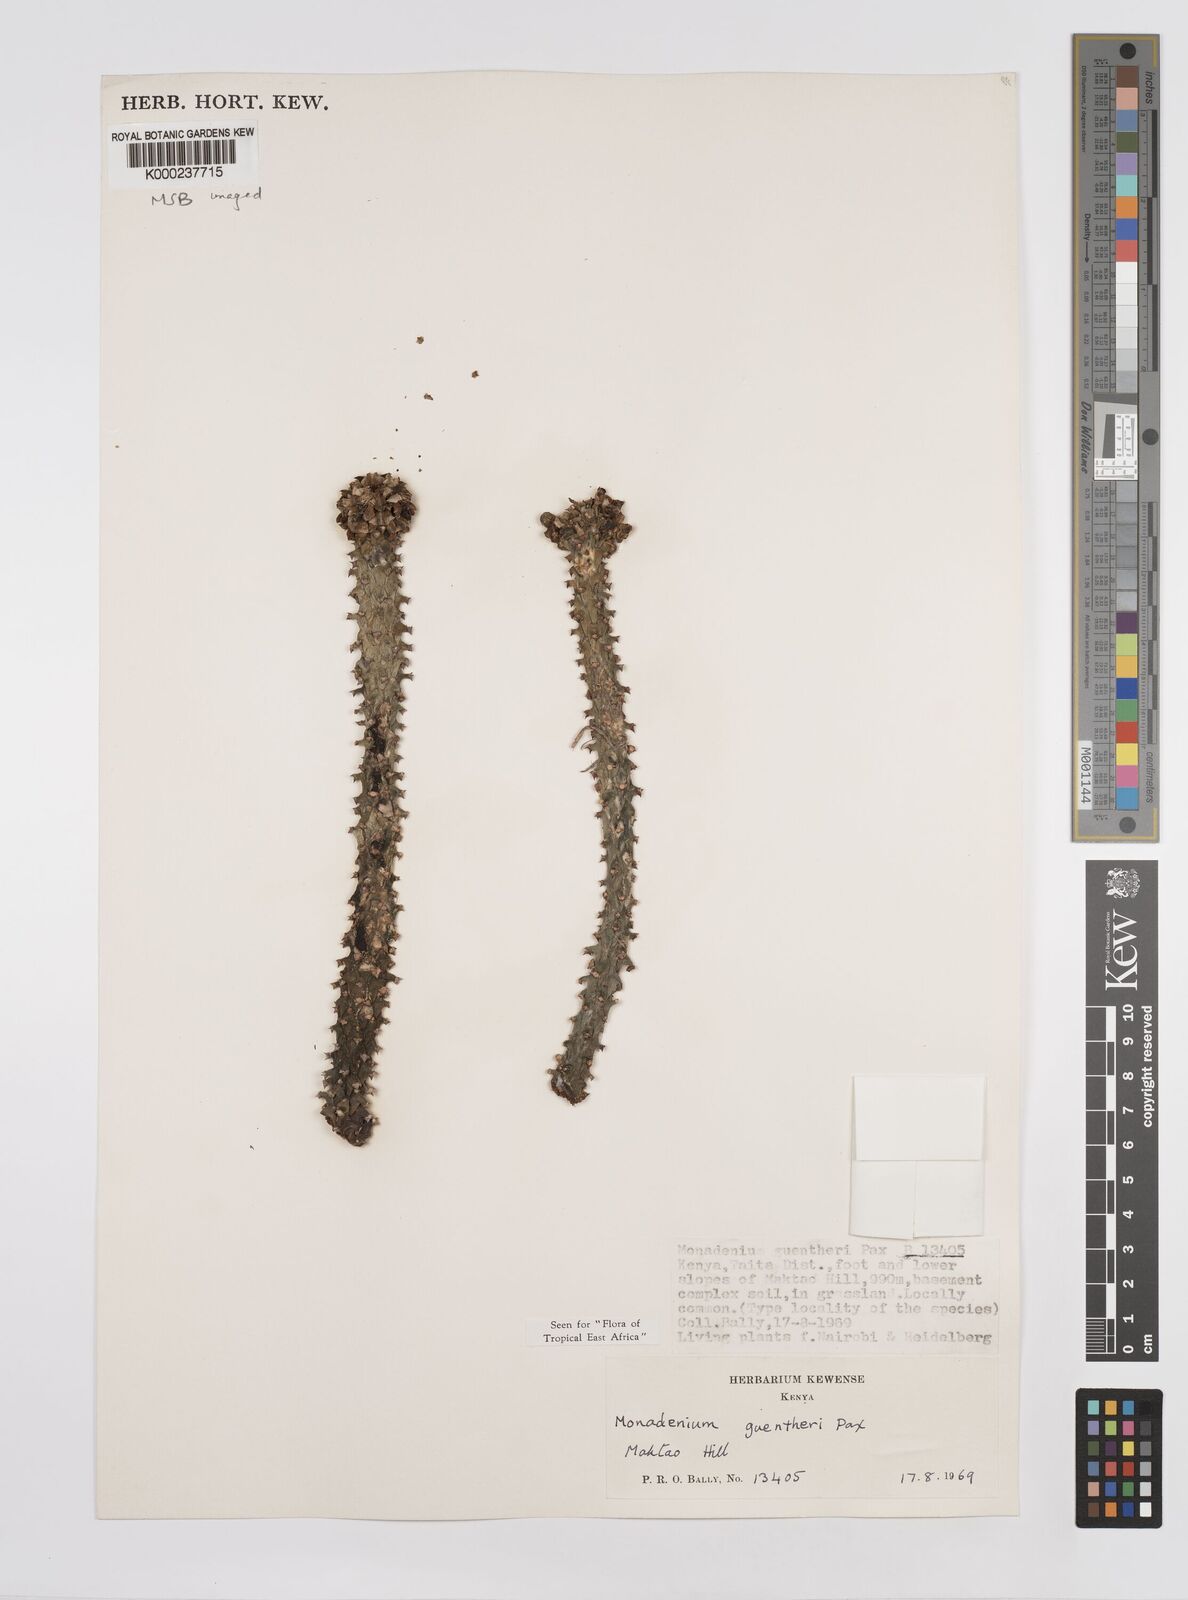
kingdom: Plantae
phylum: Tracheophyta
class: Magnoliopsida
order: Malpighiales
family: Euphorbiaceae
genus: Euphorbia
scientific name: Euphorbia guentheri
